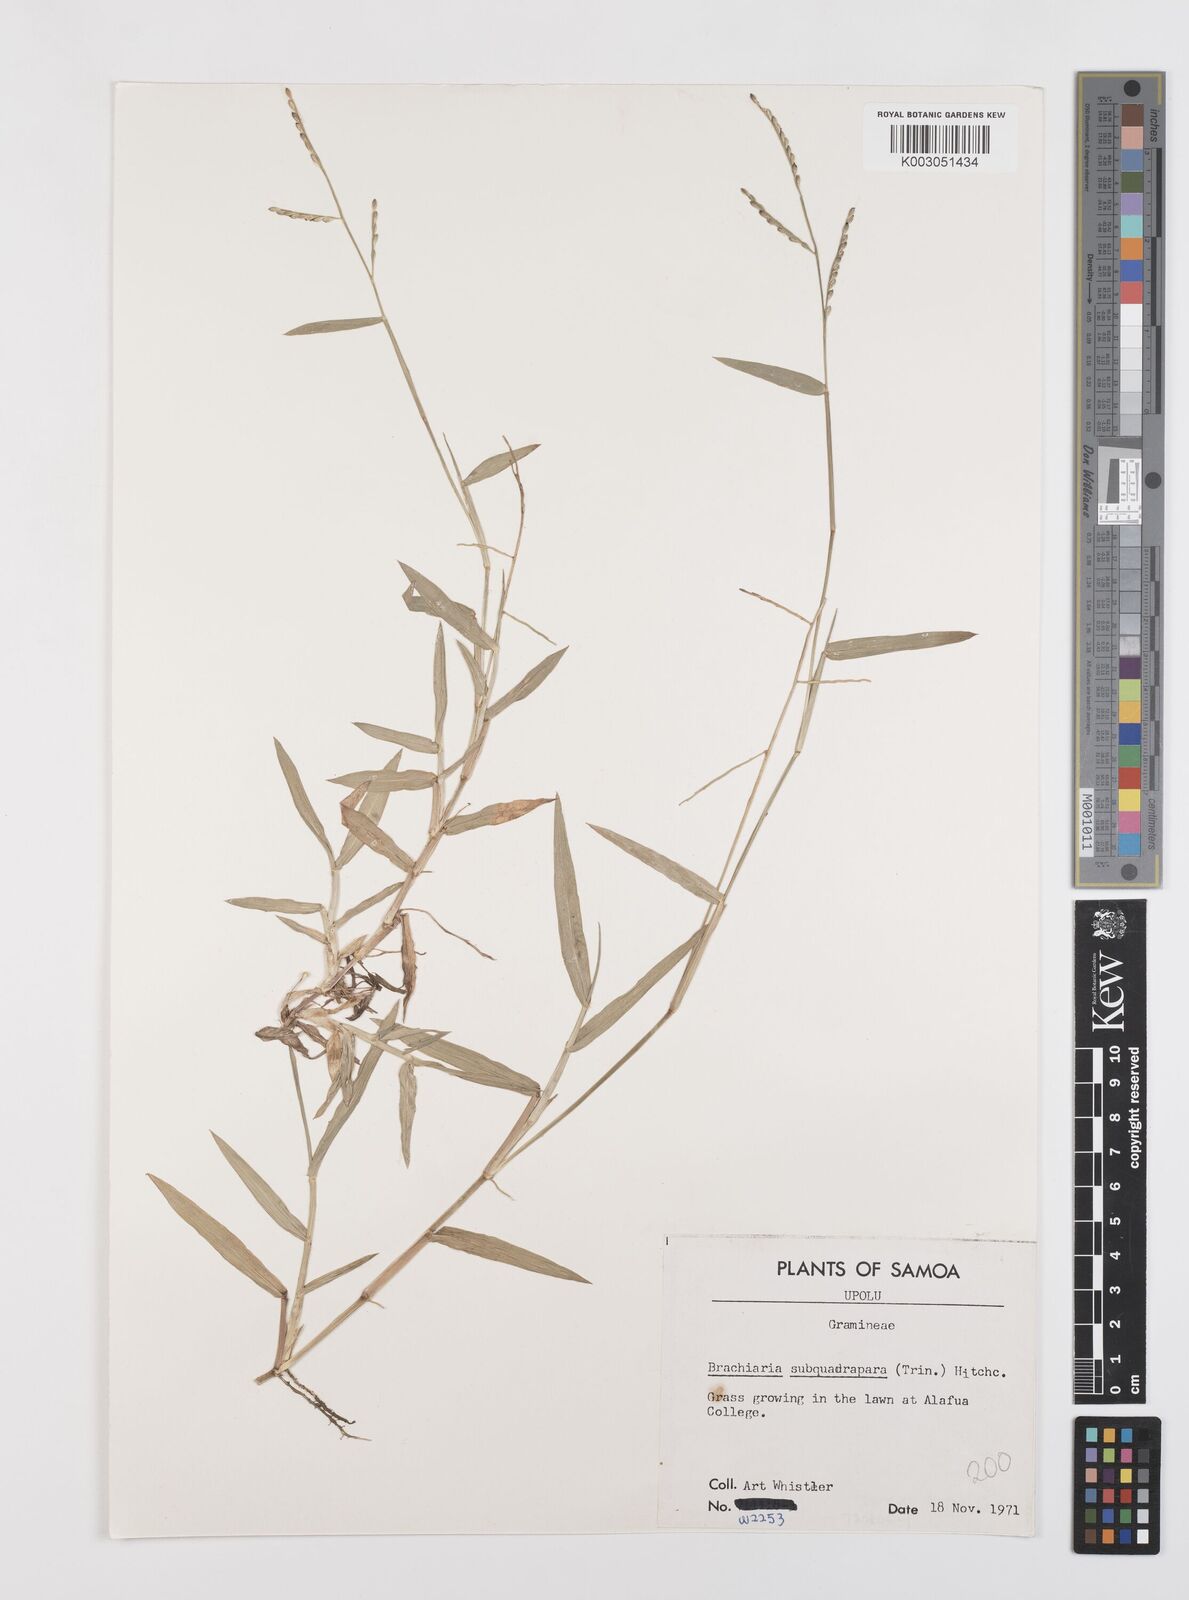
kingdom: Plantae
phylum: Tracheophyta
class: Liliopsida
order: Poales
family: Poaceae
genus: Urochloa
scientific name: Urochloa subquadripara
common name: Armgrass millet
